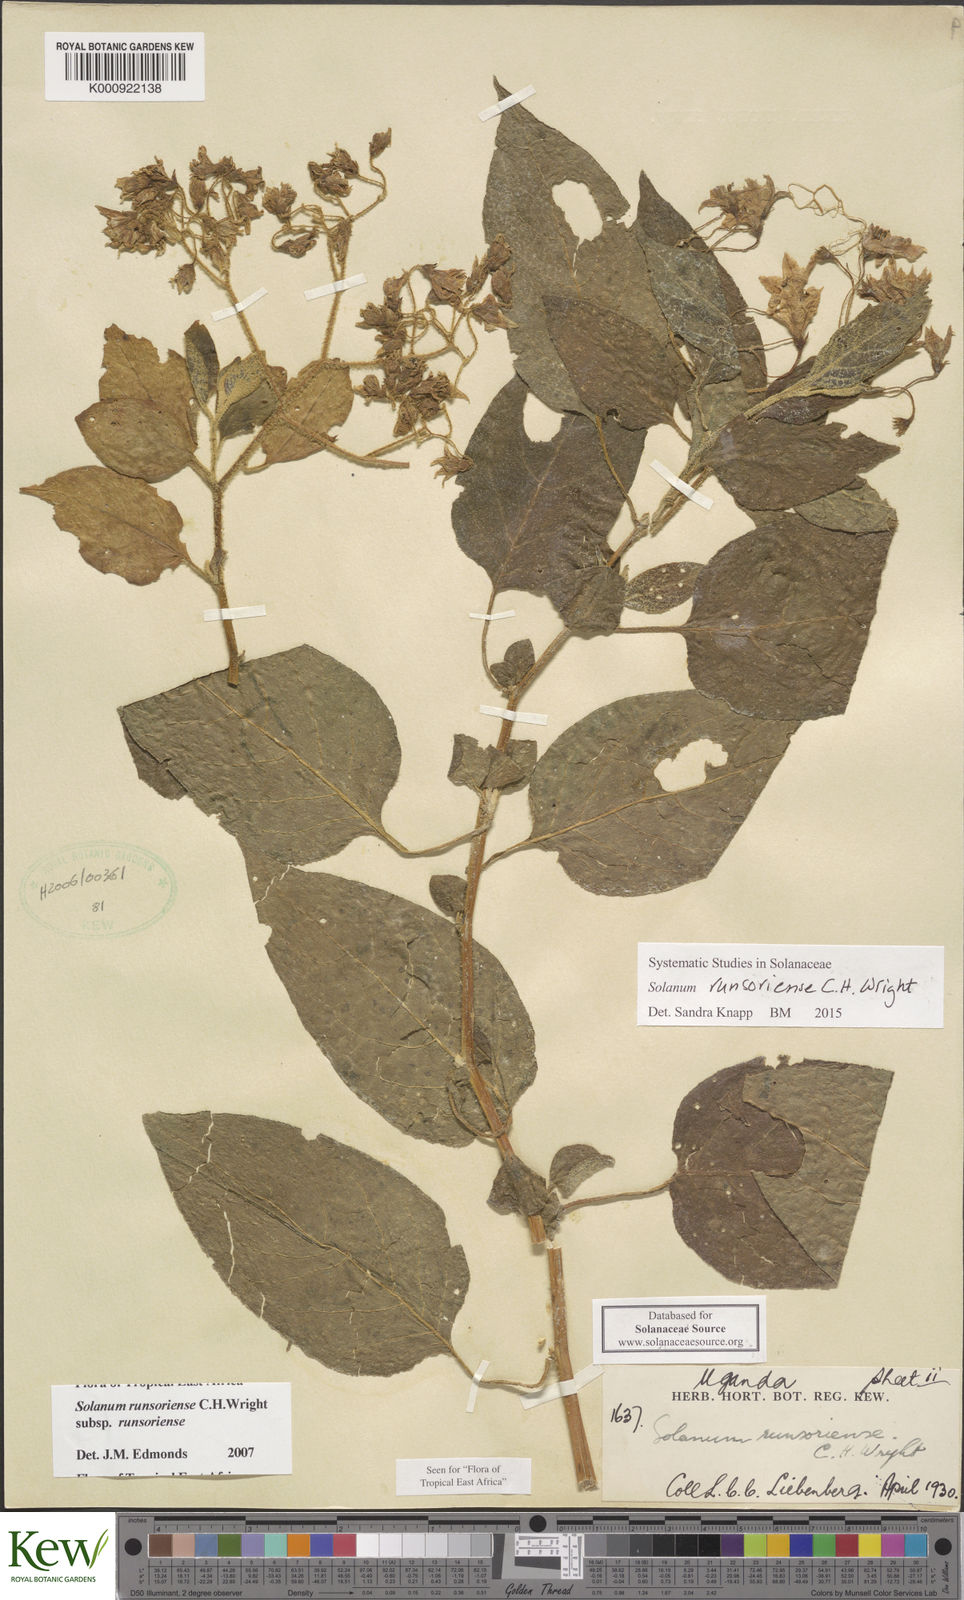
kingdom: Plantae
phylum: Tracheophyta
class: Magnoliopsida
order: Solanales
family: Solanaceae
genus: Solanum
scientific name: Solanum runsoriense
